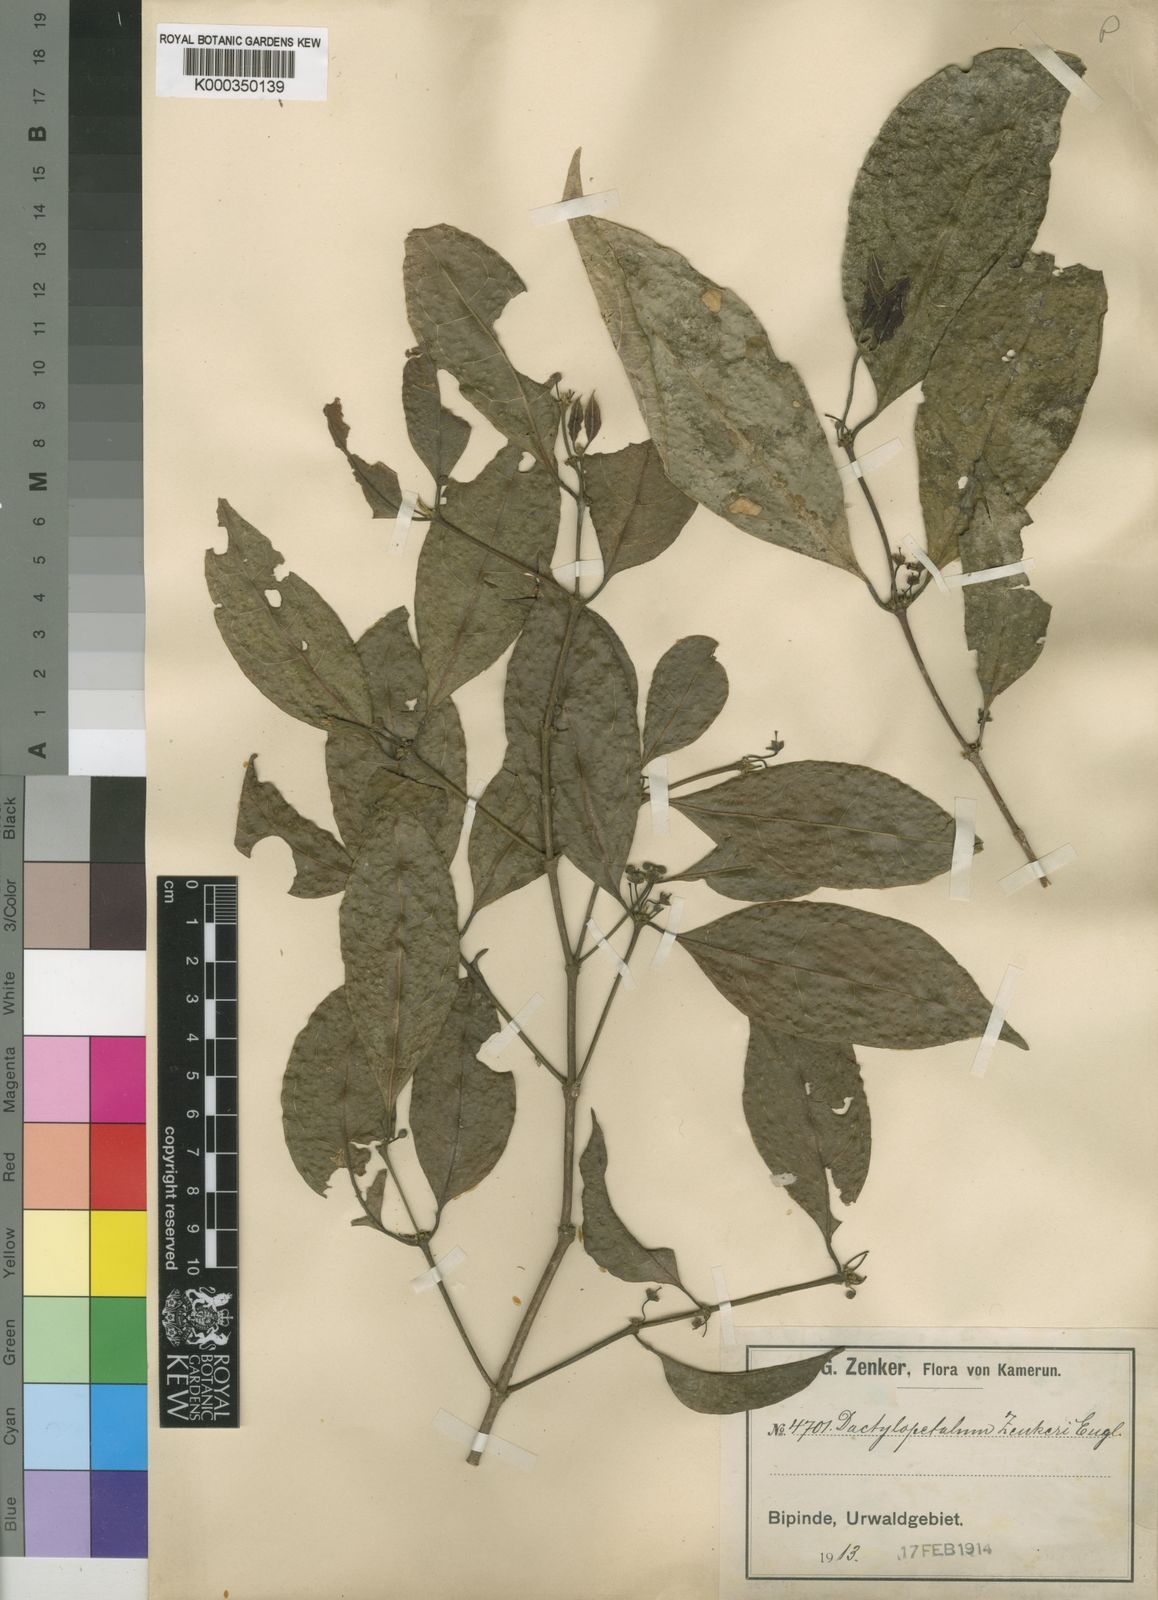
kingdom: Plantae
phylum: Tracheophyta
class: Magnoliopsida
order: Malpighiales
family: Rhizophoraceae
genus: Cassipourea
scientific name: Cassipourea zenkeri
